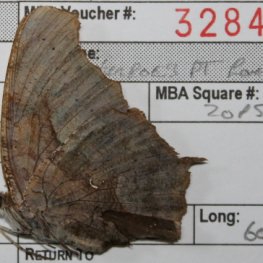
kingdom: Animalia
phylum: Arthropoda
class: Insecta
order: Lepidoptera
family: Nymphalidae
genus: Polygonia
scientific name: Polygonia interrogationis
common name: Question Mark
